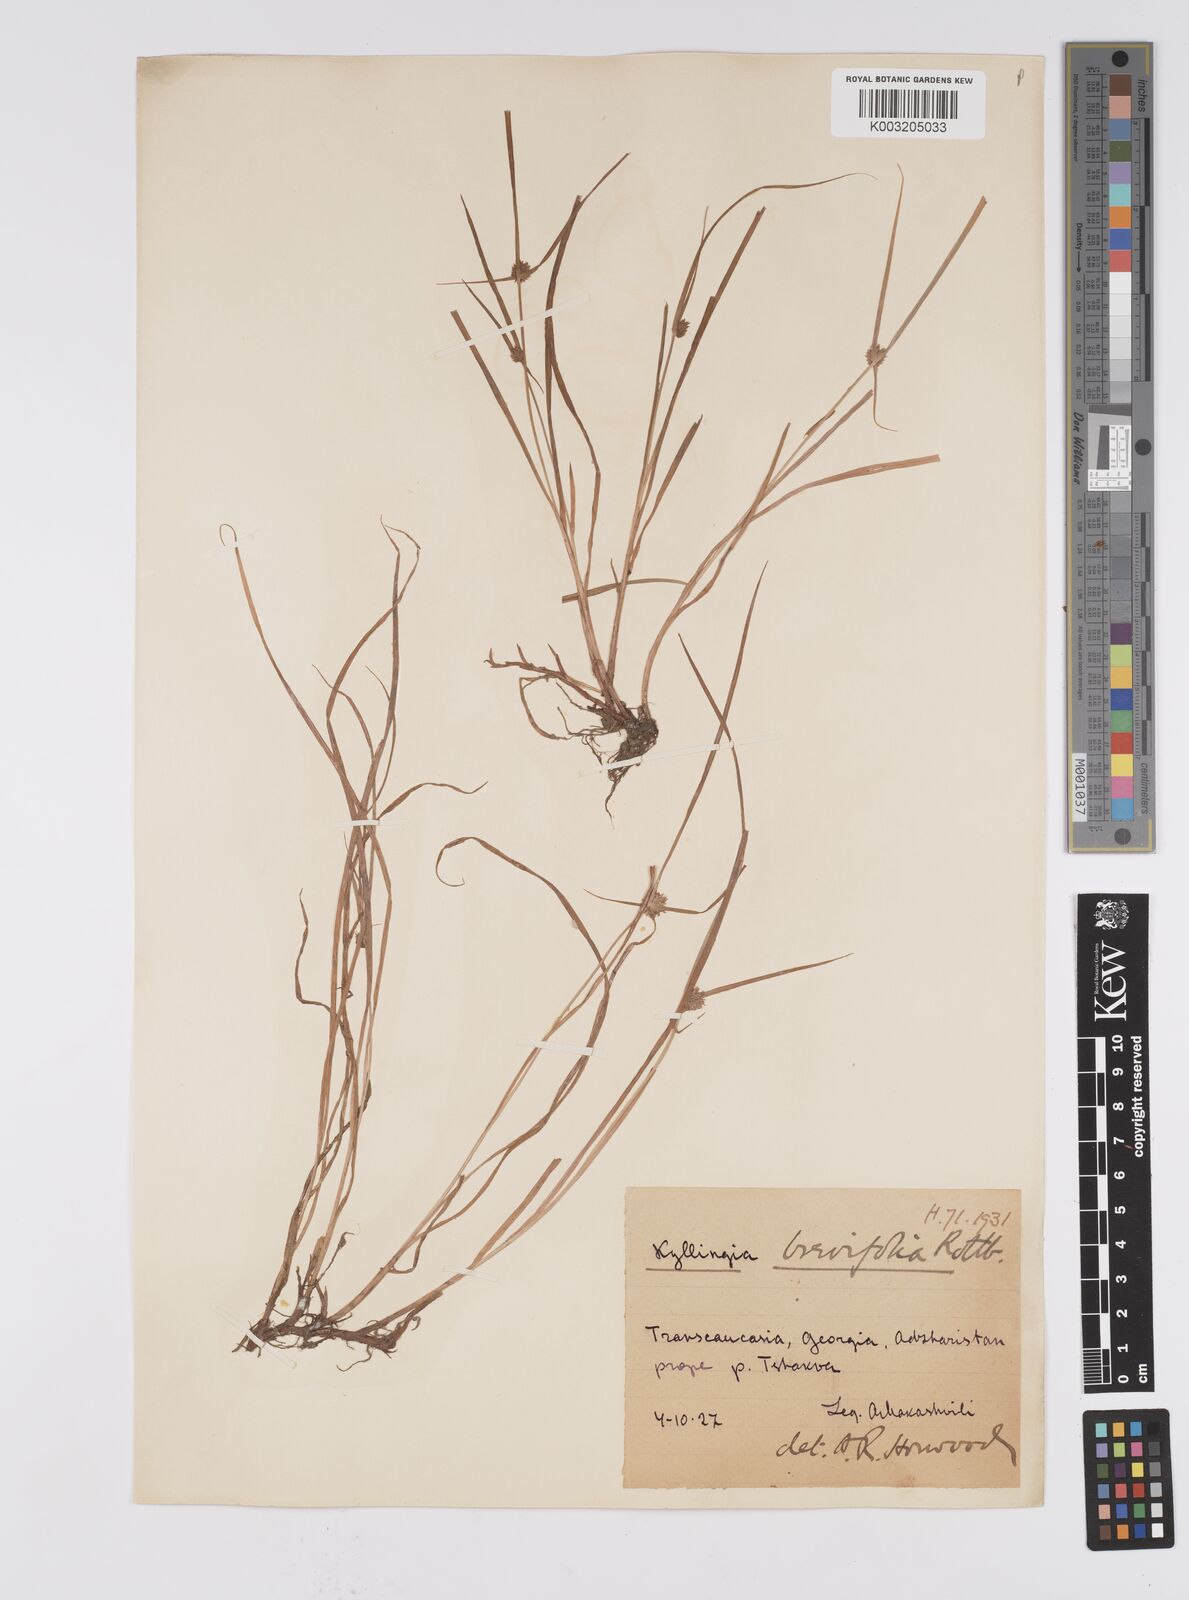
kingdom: Plantae
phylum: Tracheophyta
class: Liliopsida
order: Poales
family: Cyperaceae
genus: Cyperus
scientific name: Cyperus brevifolius
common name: Globe kyllinga
